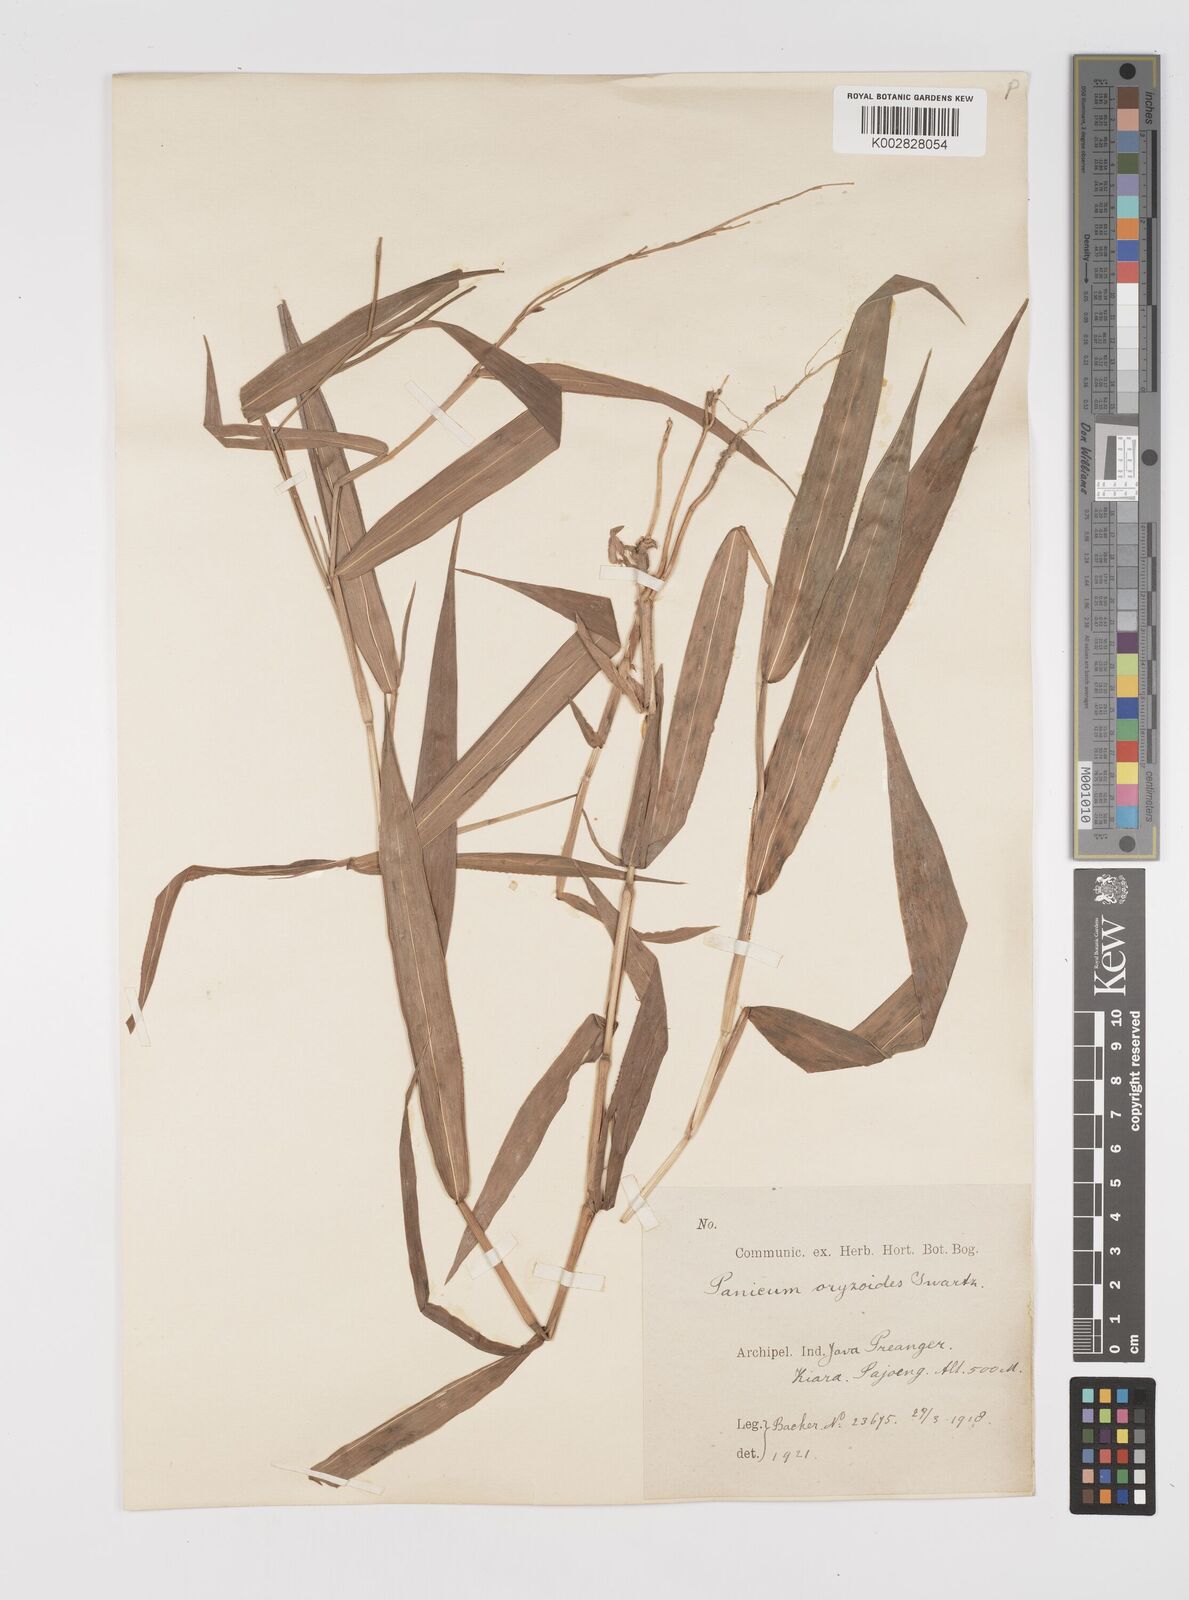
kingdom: Plantae
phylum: Tracheophyta
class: Liliopsida
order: Poales
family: Poaceae
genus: Acroceras
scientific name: Acroceras tonkinense
